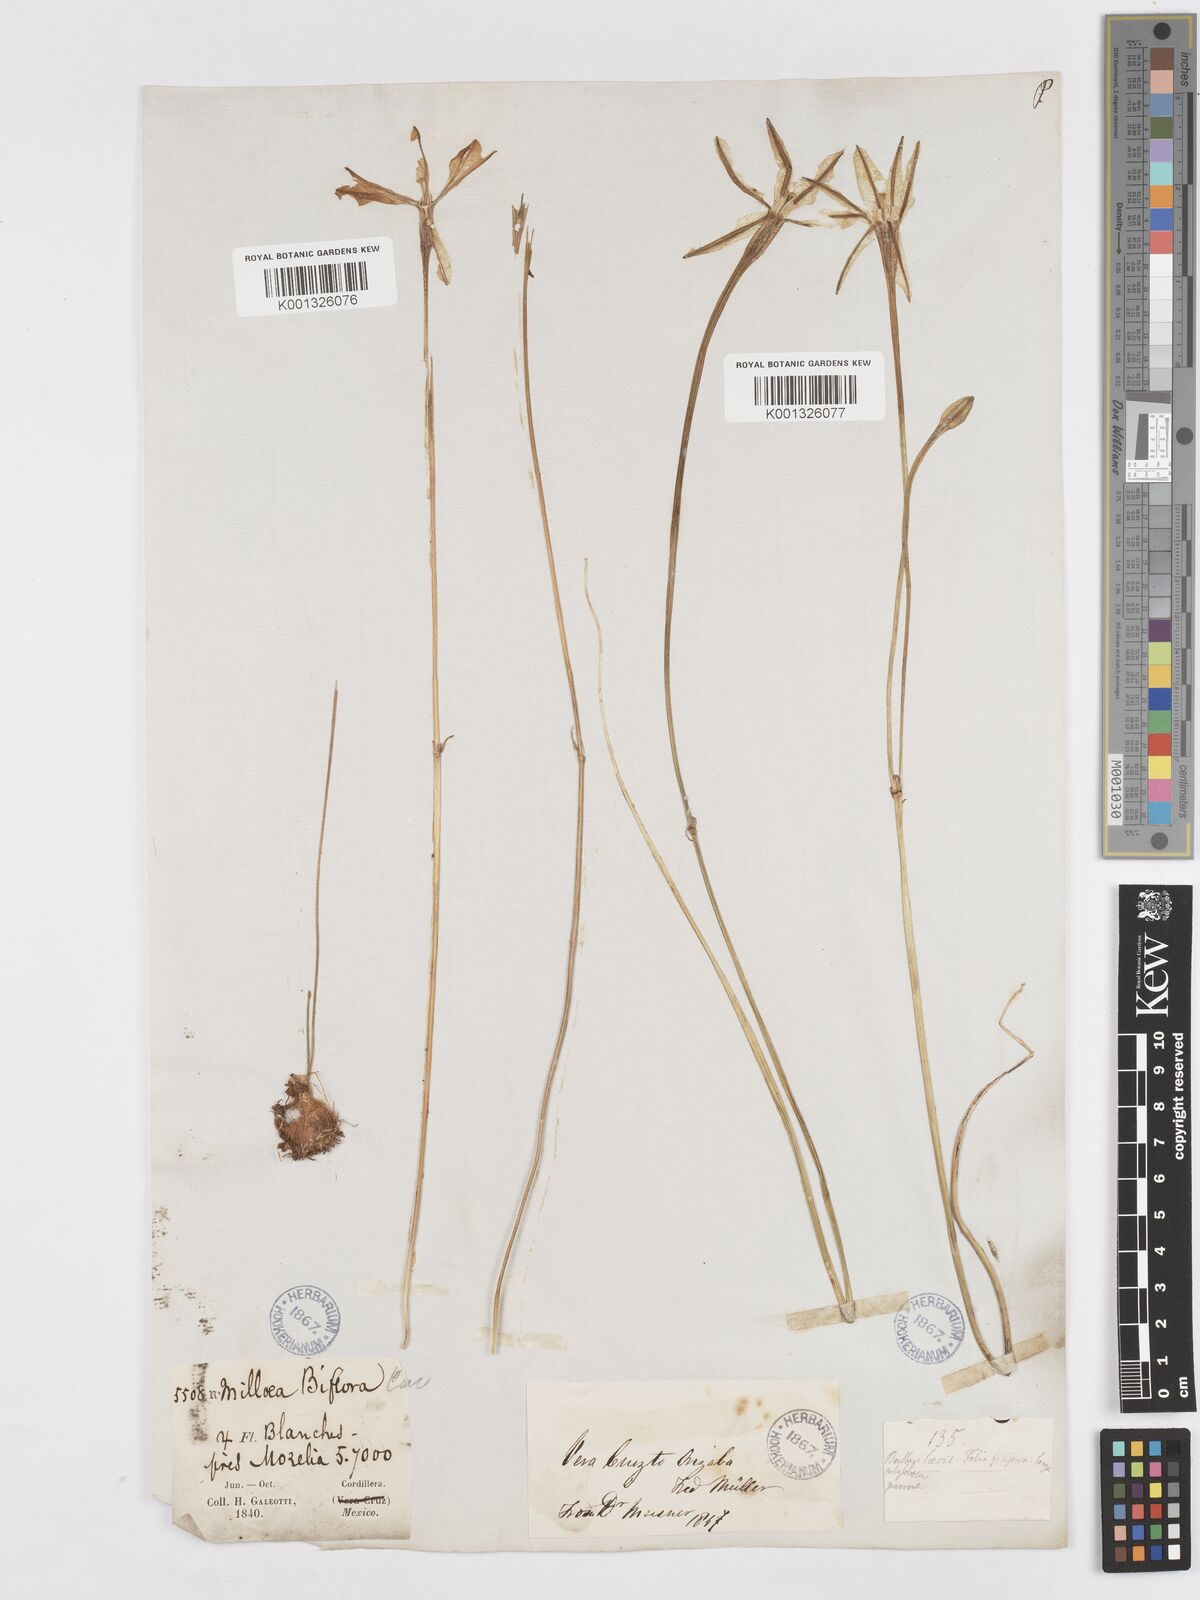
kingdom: Plantae
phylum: Tracheophyta
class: Liliopsida
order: Asparagales
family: Asparagaceae
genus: Milla
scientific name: Milla biflora
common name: Mexican-star
